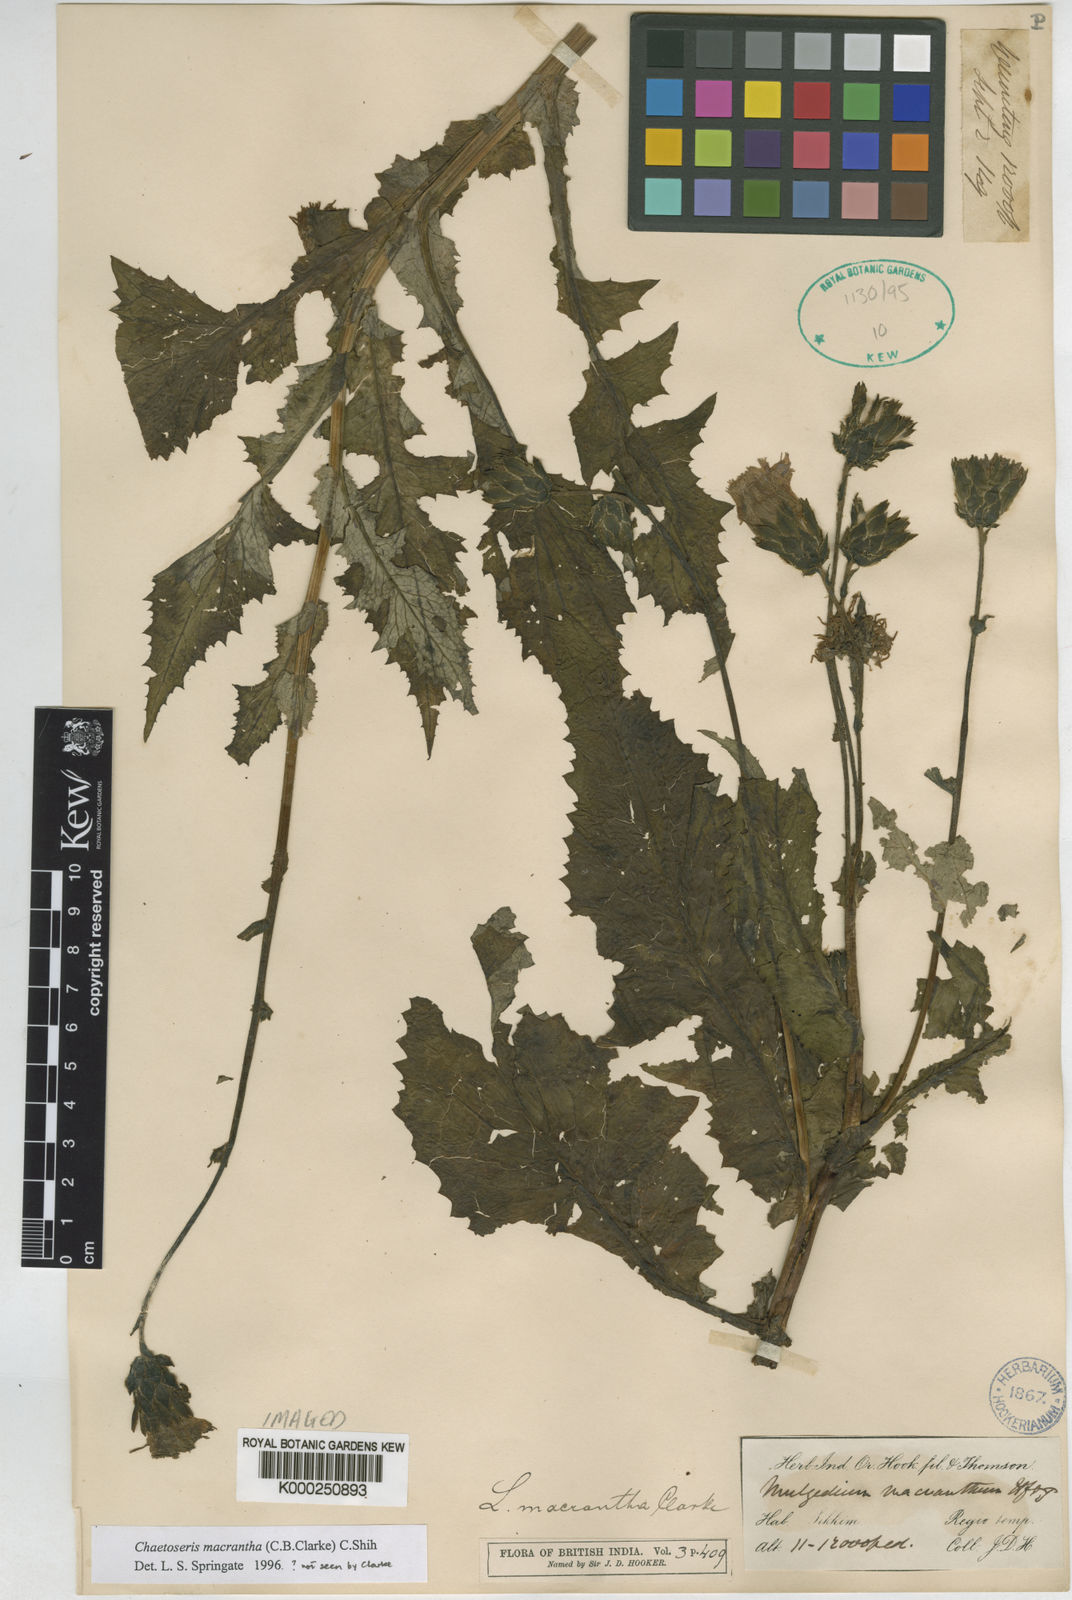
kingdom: Plantae
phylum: Tracheophyta
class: Magnoliopsida
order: Asterales
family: Asteraceae
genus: Melanoseris
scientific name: Melanoseris macrantha
